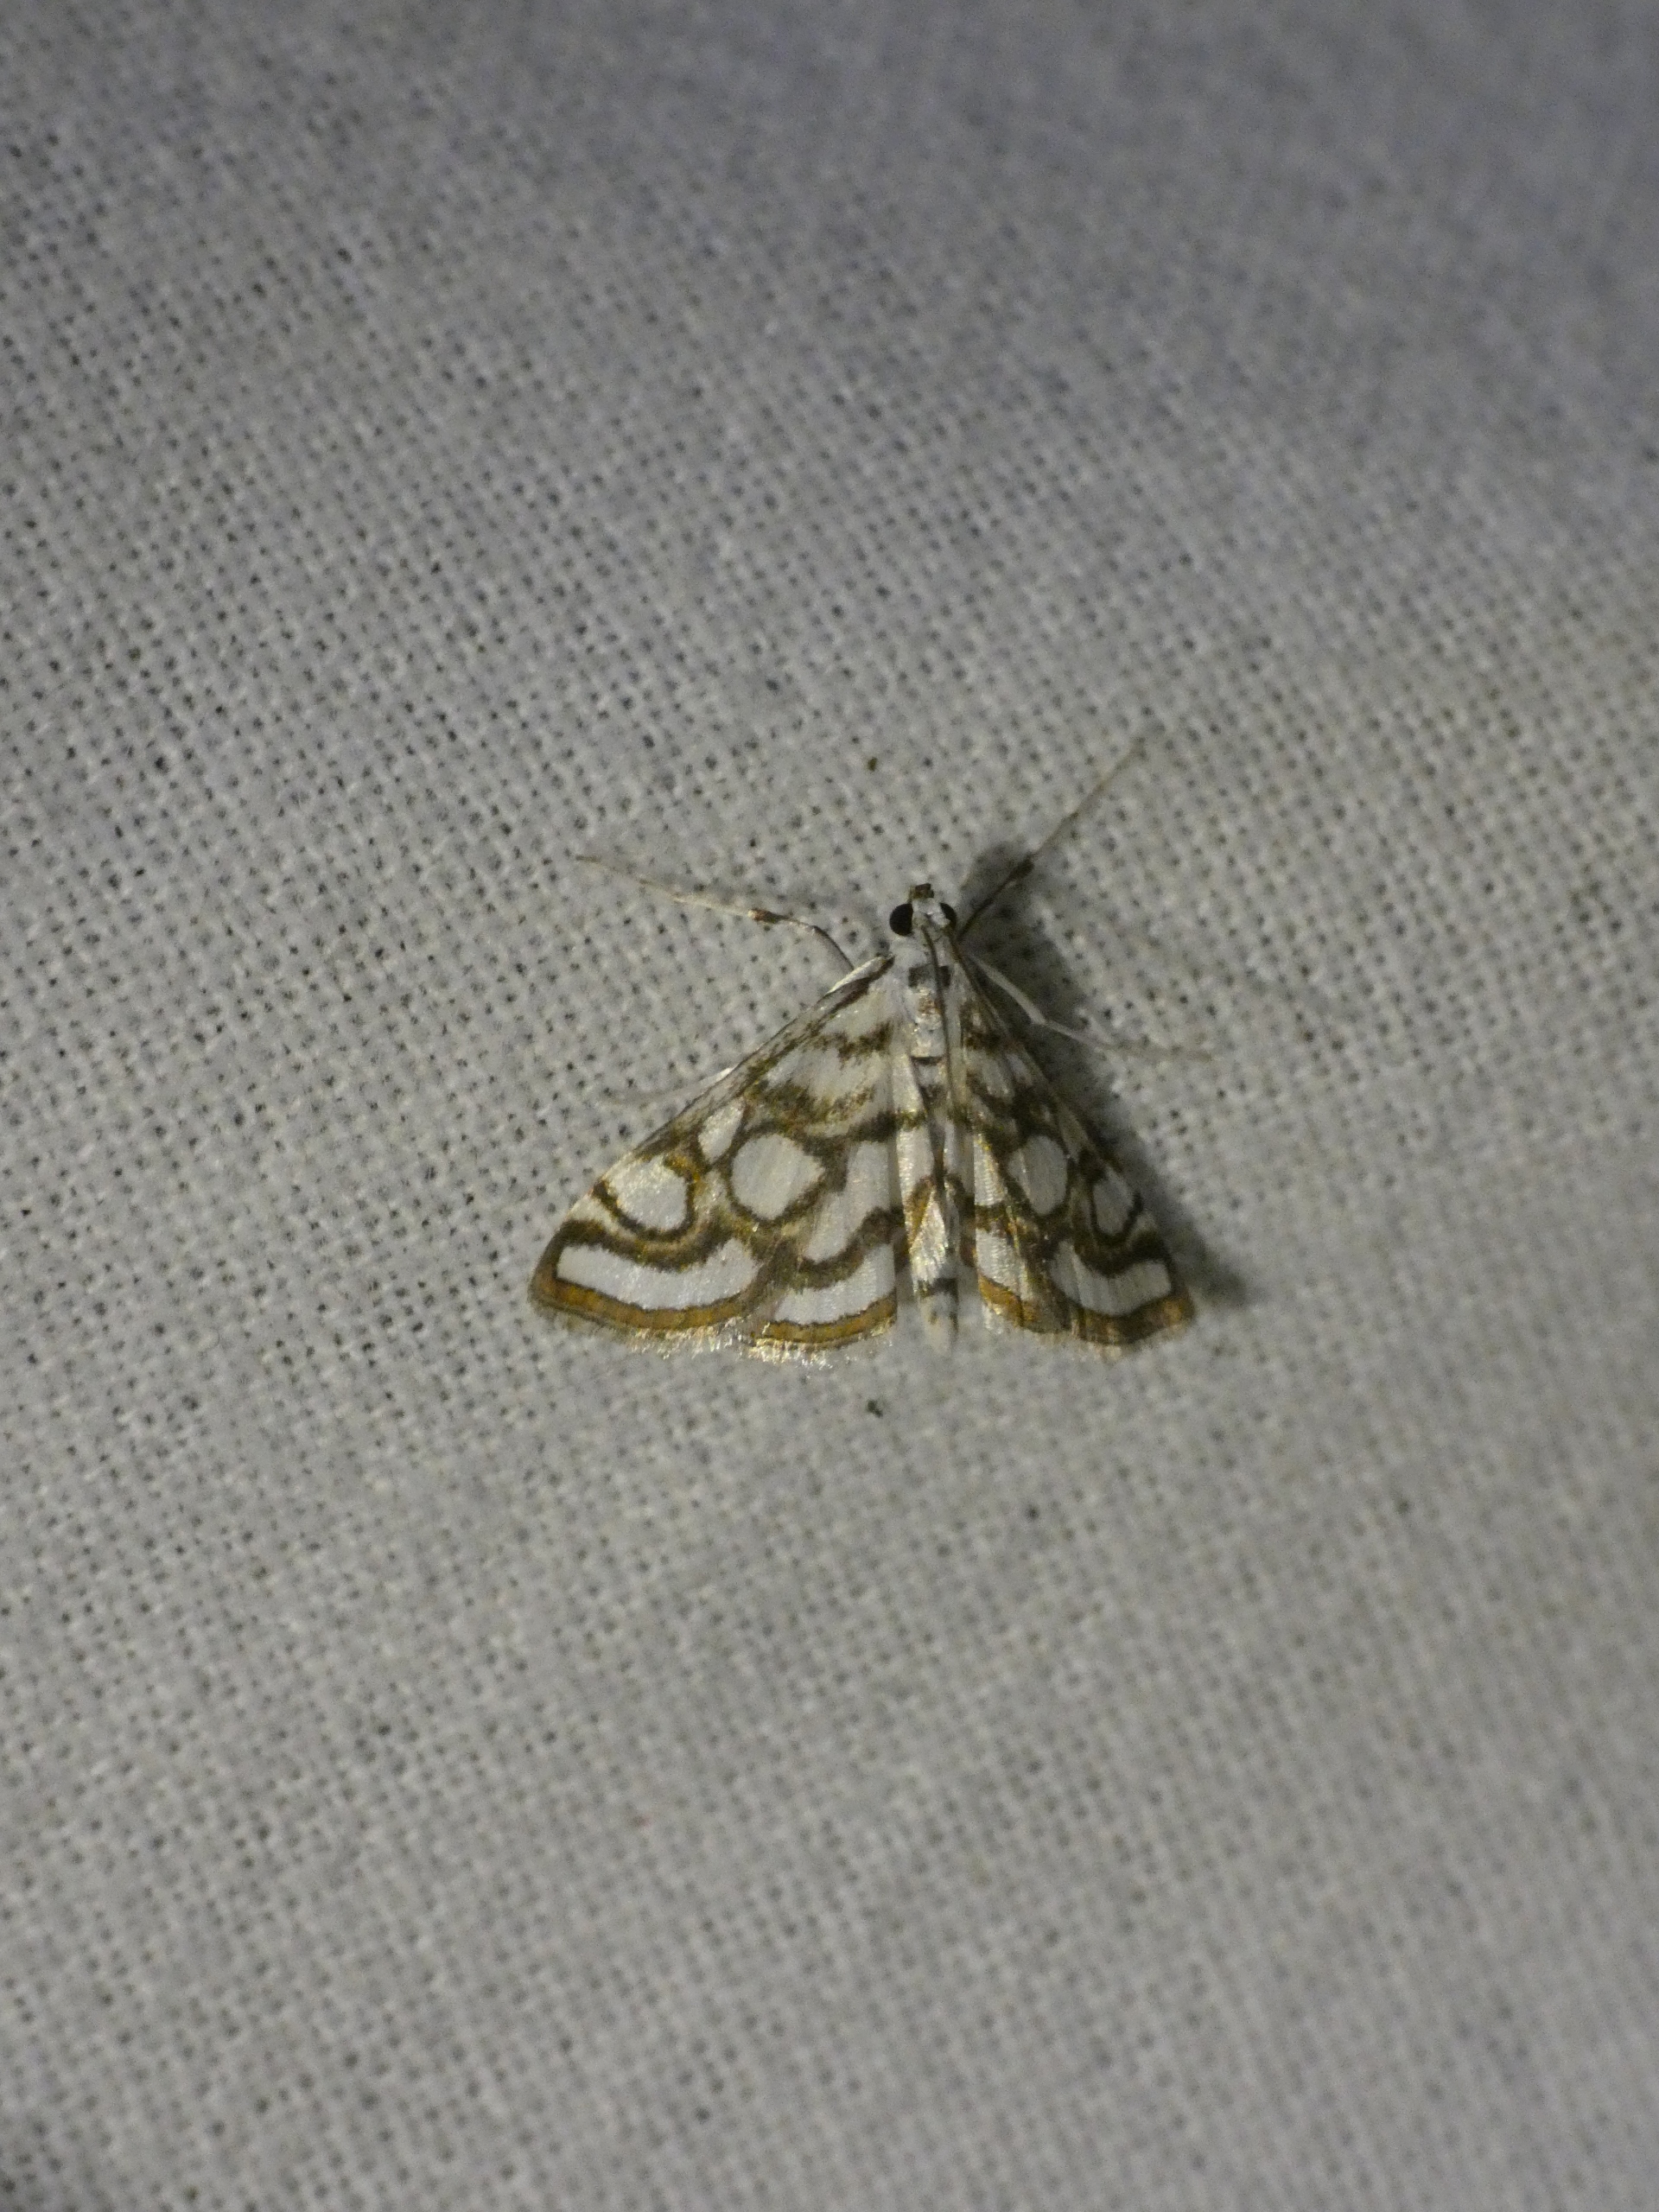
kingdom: Animalia
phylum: Arthropoda
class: Insecta
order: Lepidoptera
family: Crambidae
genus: Nymphula
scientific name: Nymphula nitidulata
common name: Lille porcelænsmøl
